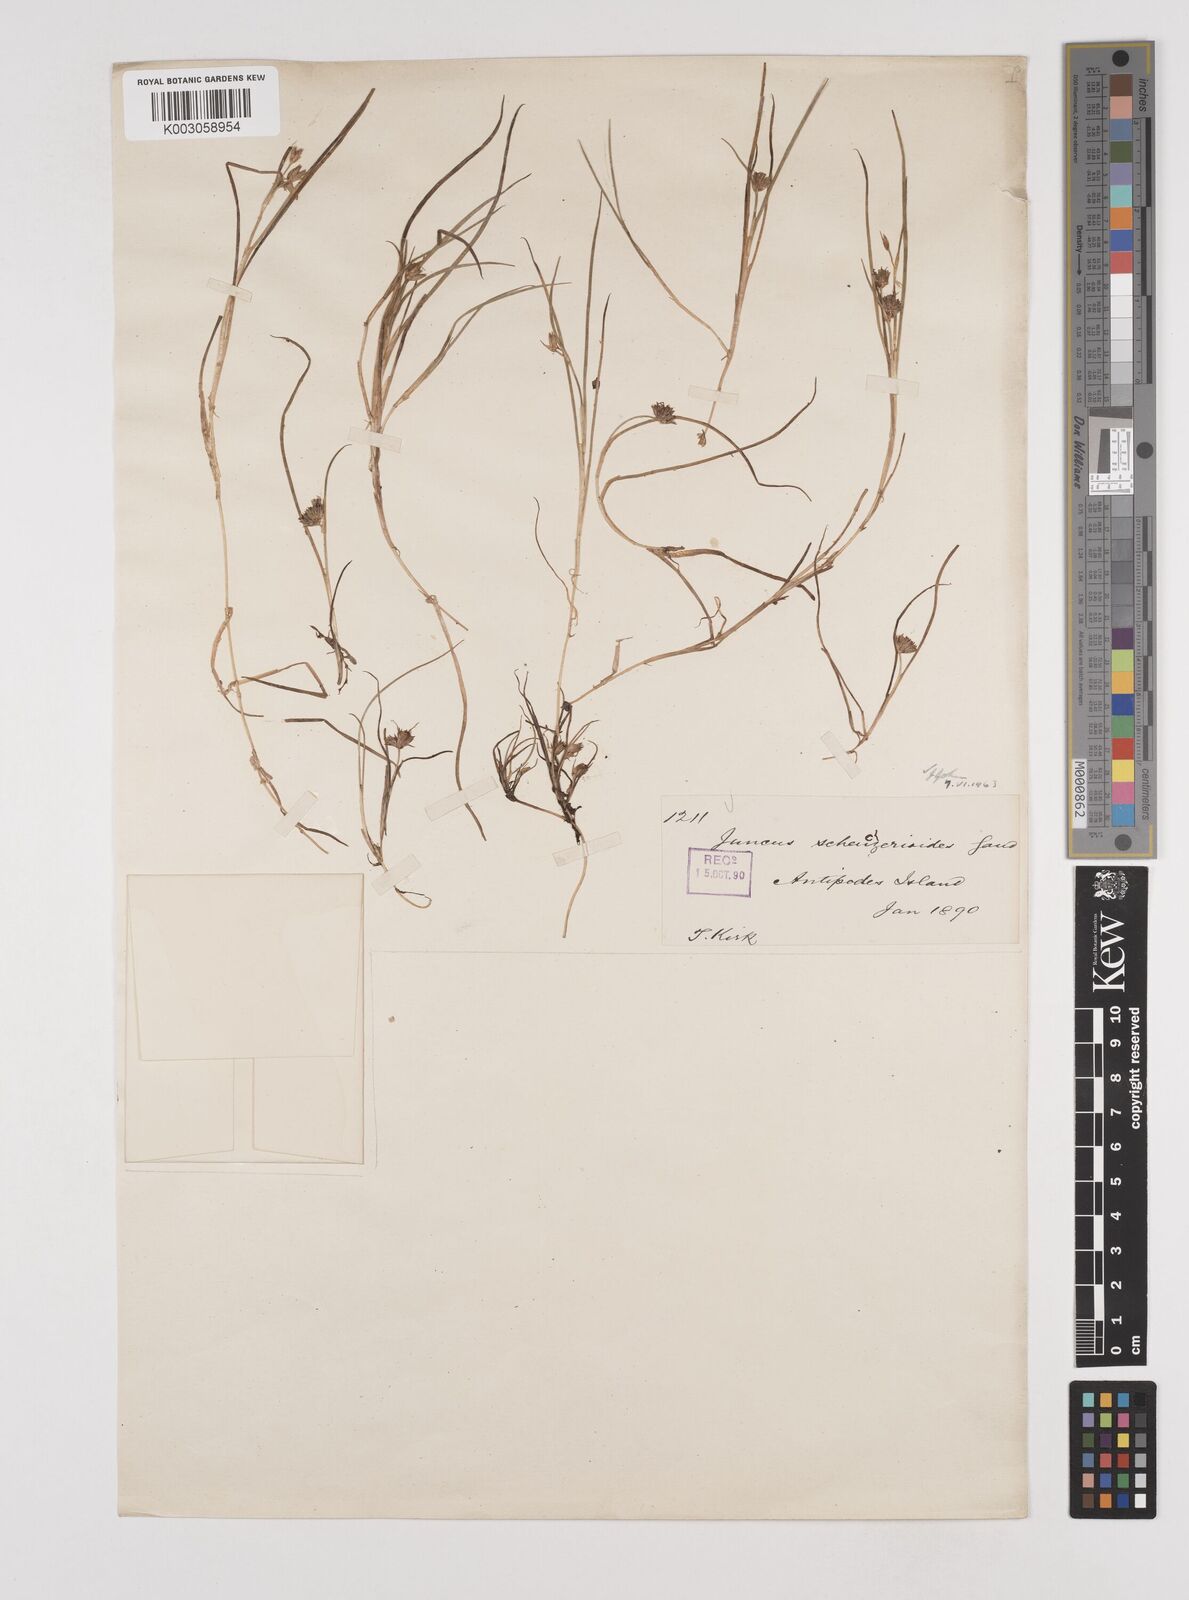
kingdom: Plantae
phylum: Tracheophyta
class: Liliopsida
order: Poales
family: Juncaceae
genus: Juncus
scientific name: Juncus scheuchzerioides
